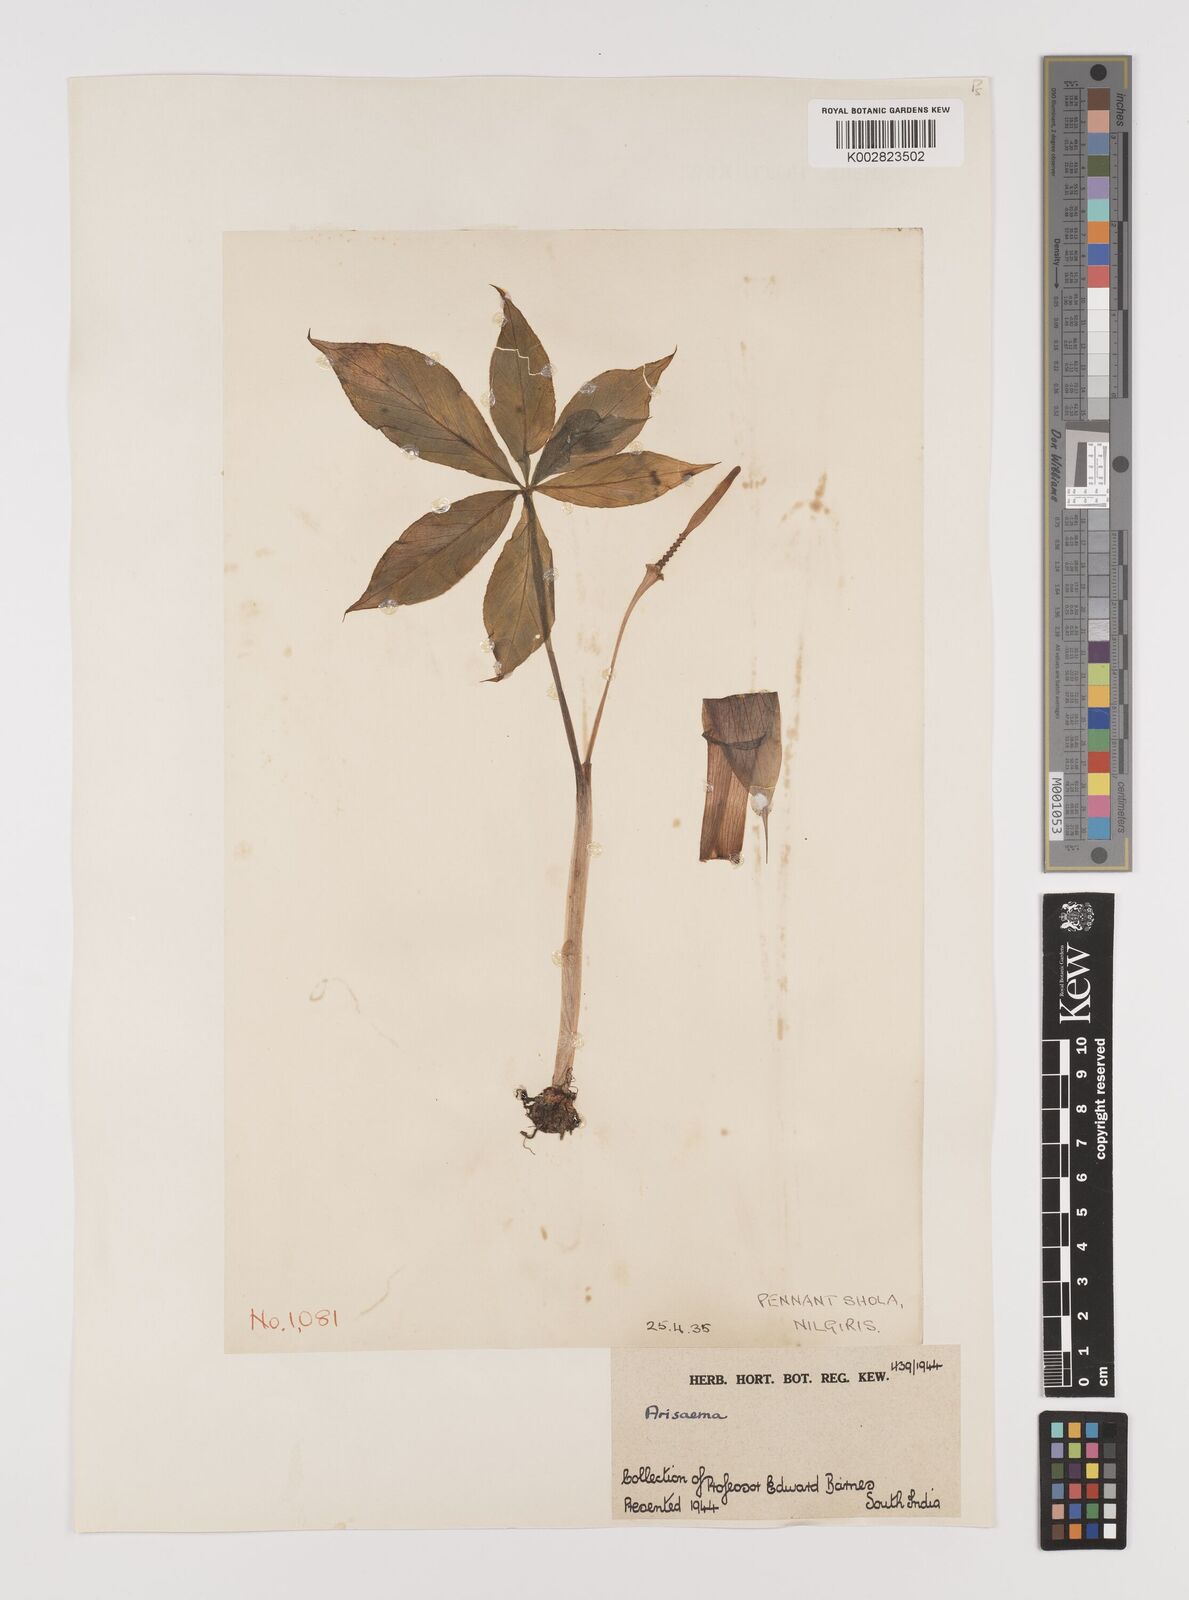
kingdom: Plantae
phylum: Tracheophyta
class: Liliopsida
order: Alismatales
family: Araceae
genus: Arisaema
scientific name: Arisaema
